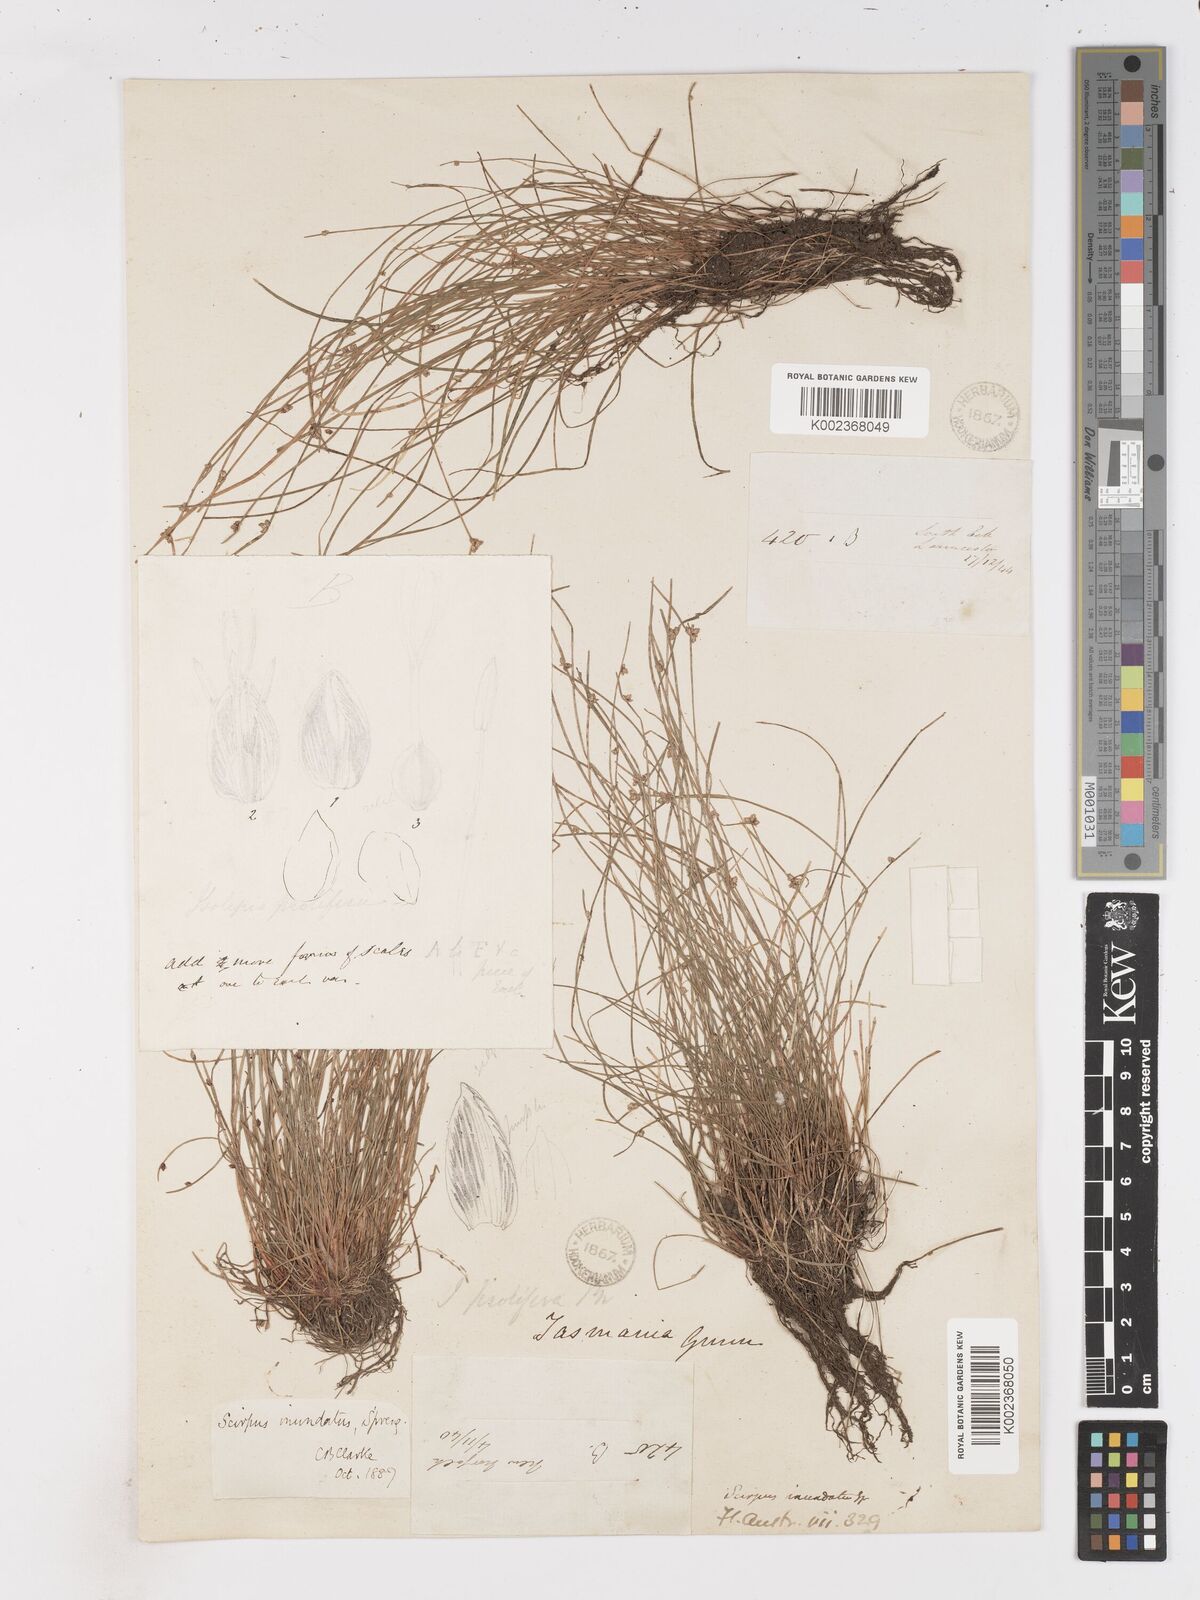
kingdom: Plantae
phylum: Tracheophyta
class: Liliopsida
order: Poales
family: Cyperaceae
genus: Isolepis
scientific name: Isolepis inundata
